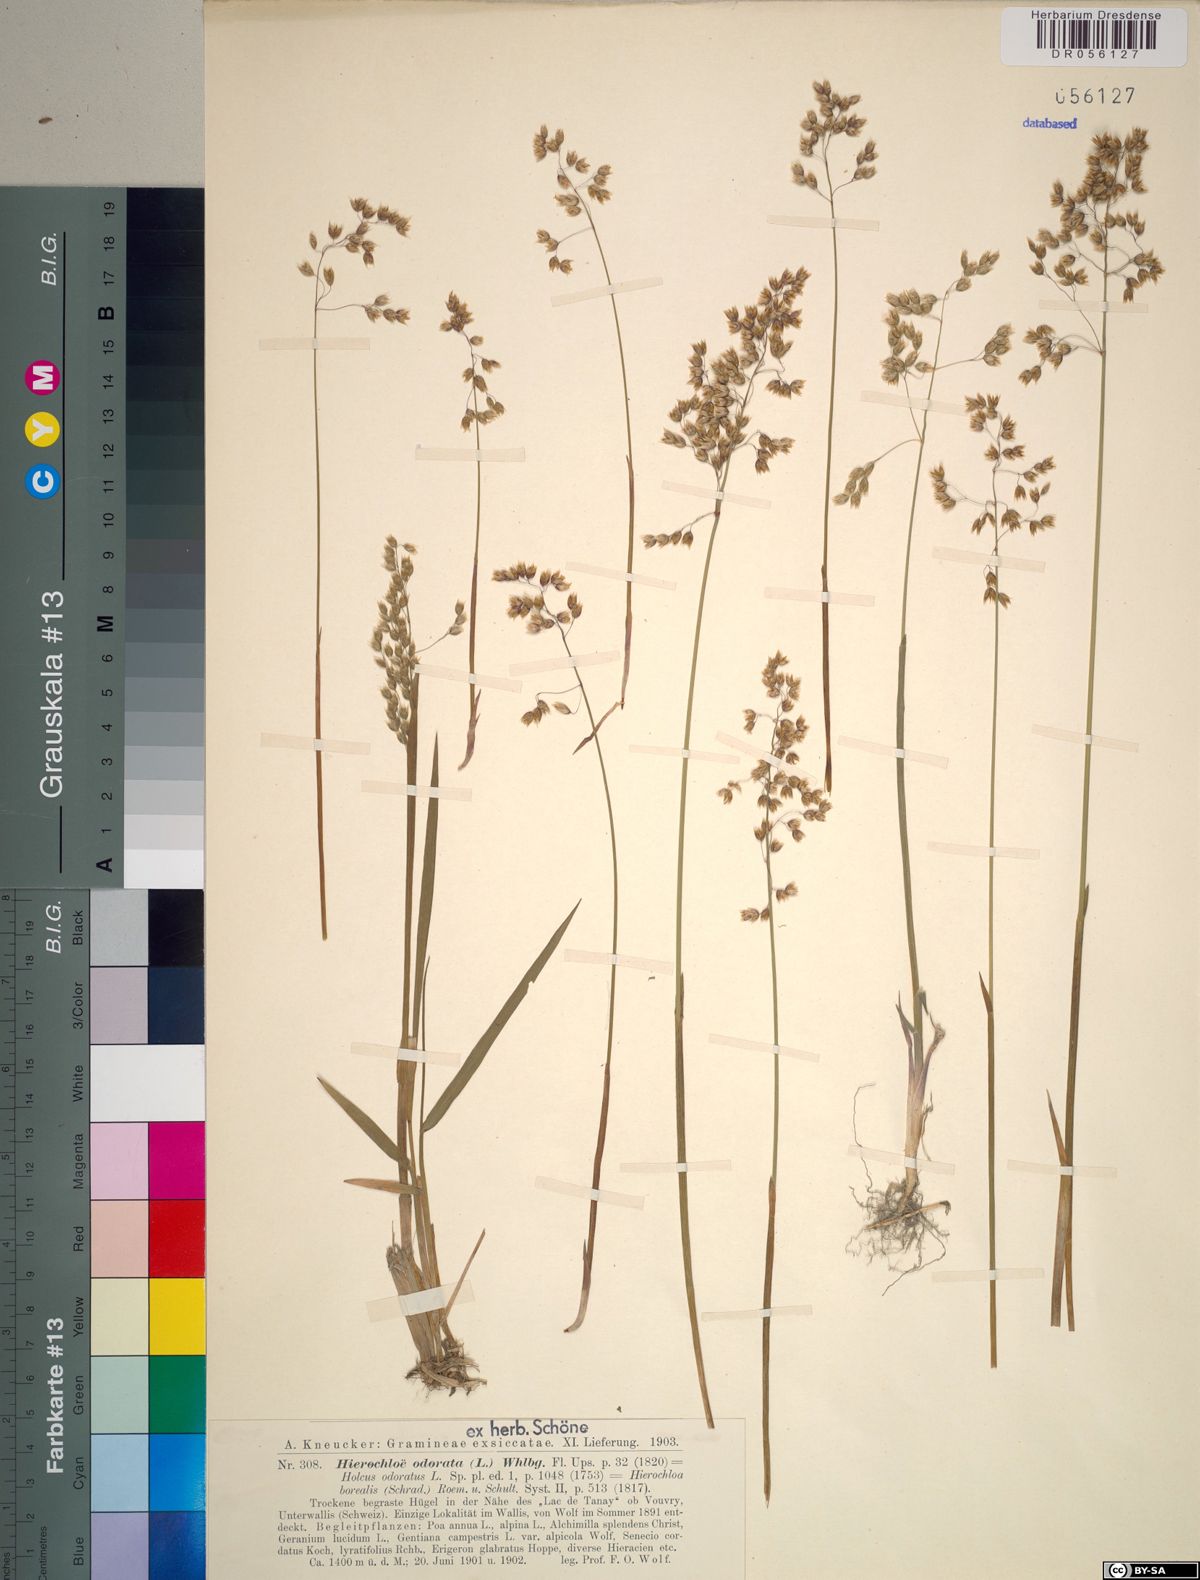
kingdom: Plantae
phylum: Tracheophyta
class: Liliopsida
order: Poales
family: Poaceae
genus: Anthoxanthum
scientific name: Anthoxanthum nitens
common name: Holy grass
